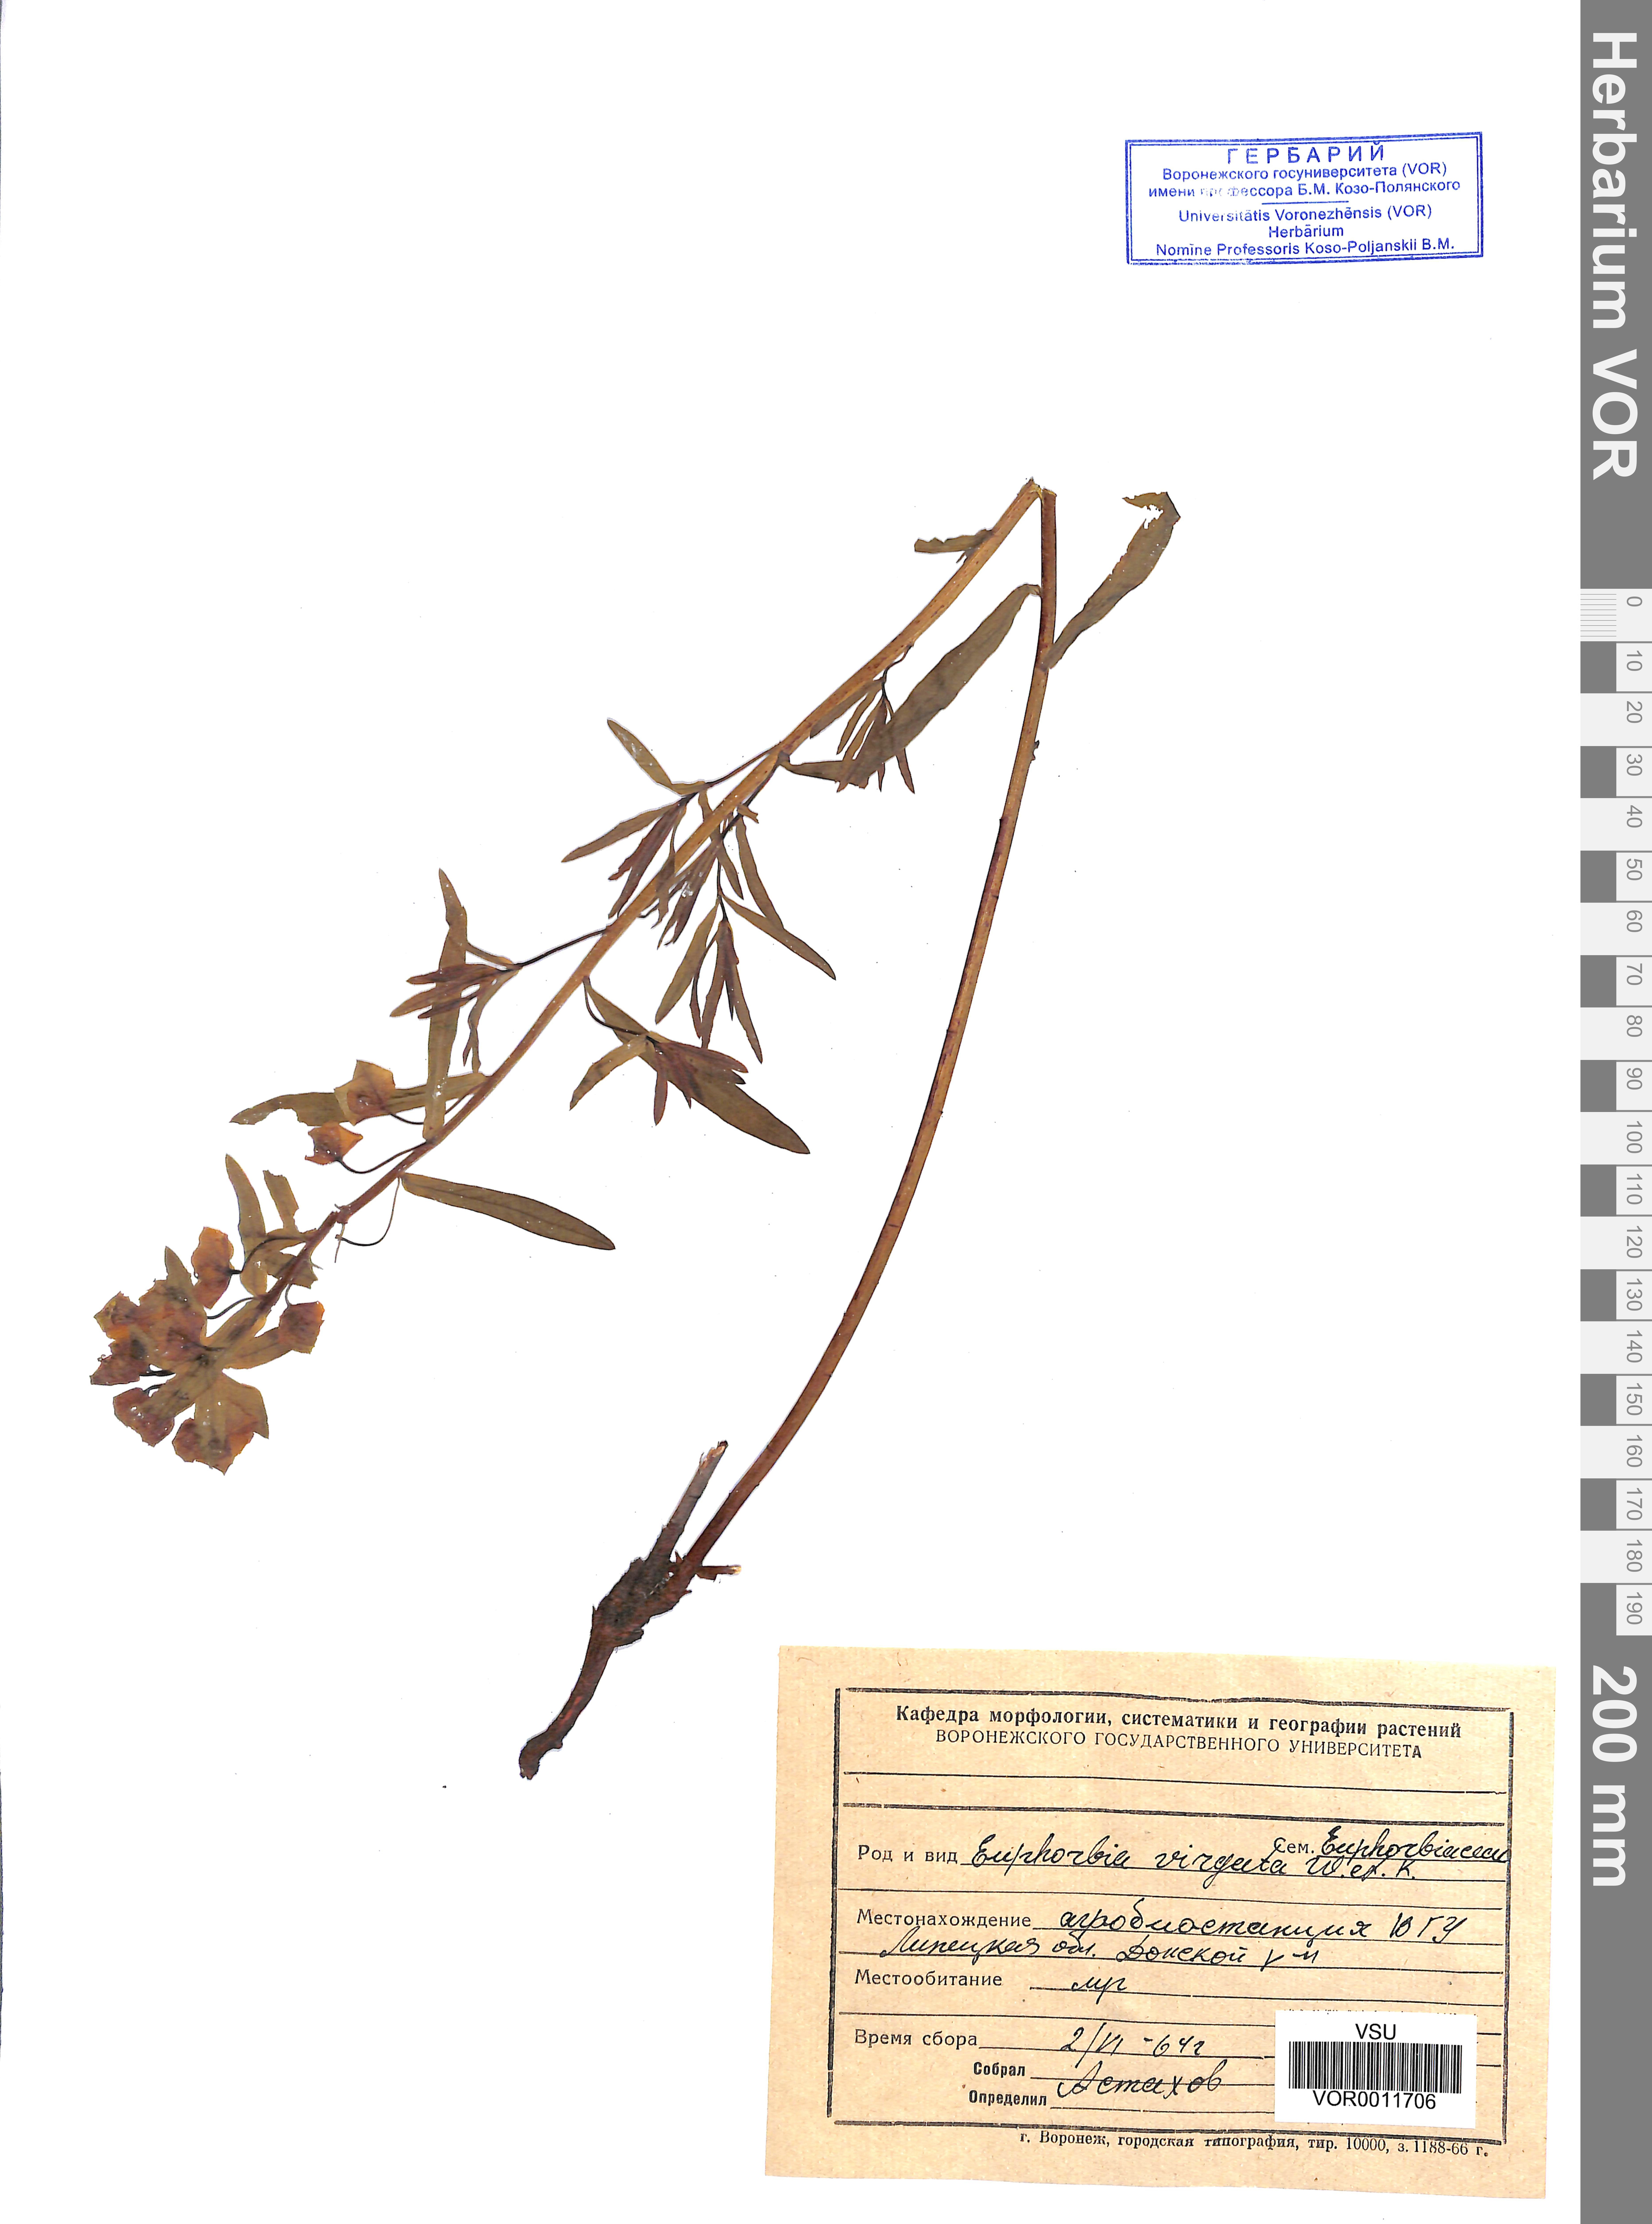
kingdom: Plantae
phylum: Tracheophyta
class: Magnoliopsida
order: Malpighiales
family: Euphorbiaceae
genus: Euphorbia
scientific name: Euphorbia virgata
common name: Leafy spurge
